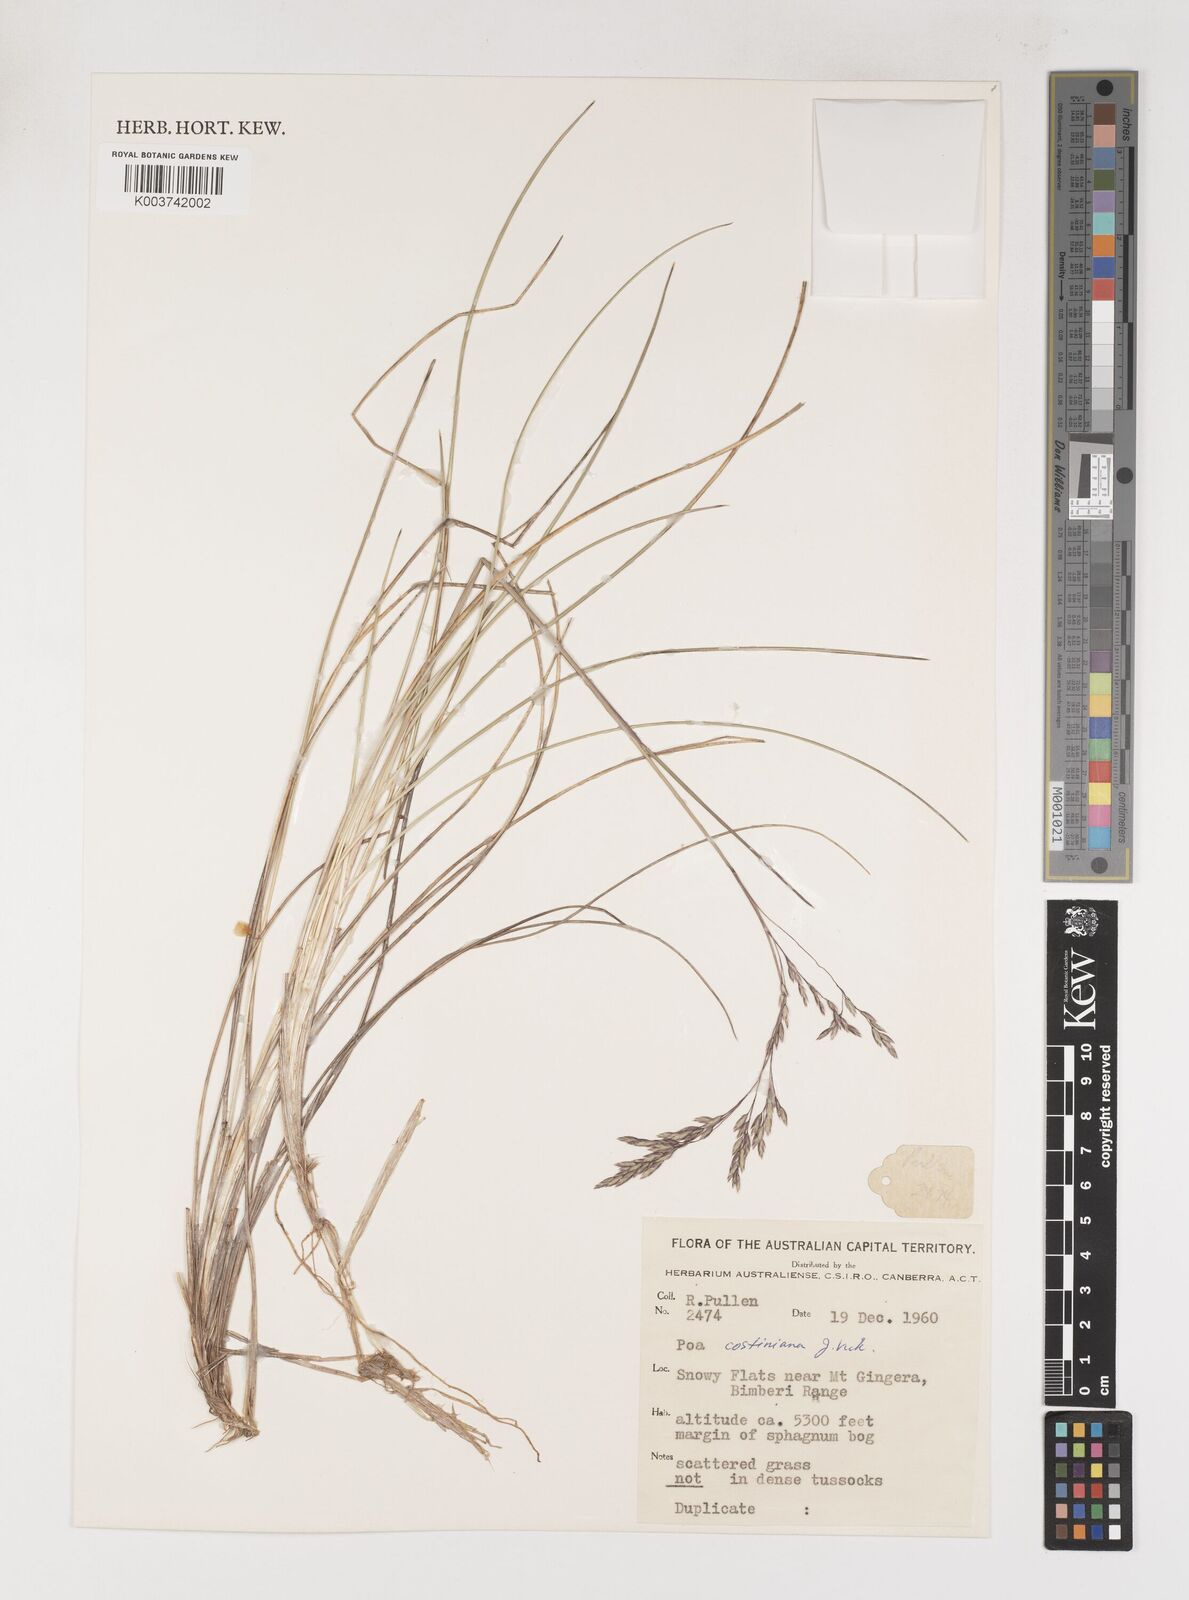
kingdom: Plantae
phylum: Tracheophyta
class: Liliopsida
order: Poales
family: Poaceae
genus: Poa
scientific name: Poa costiniana
